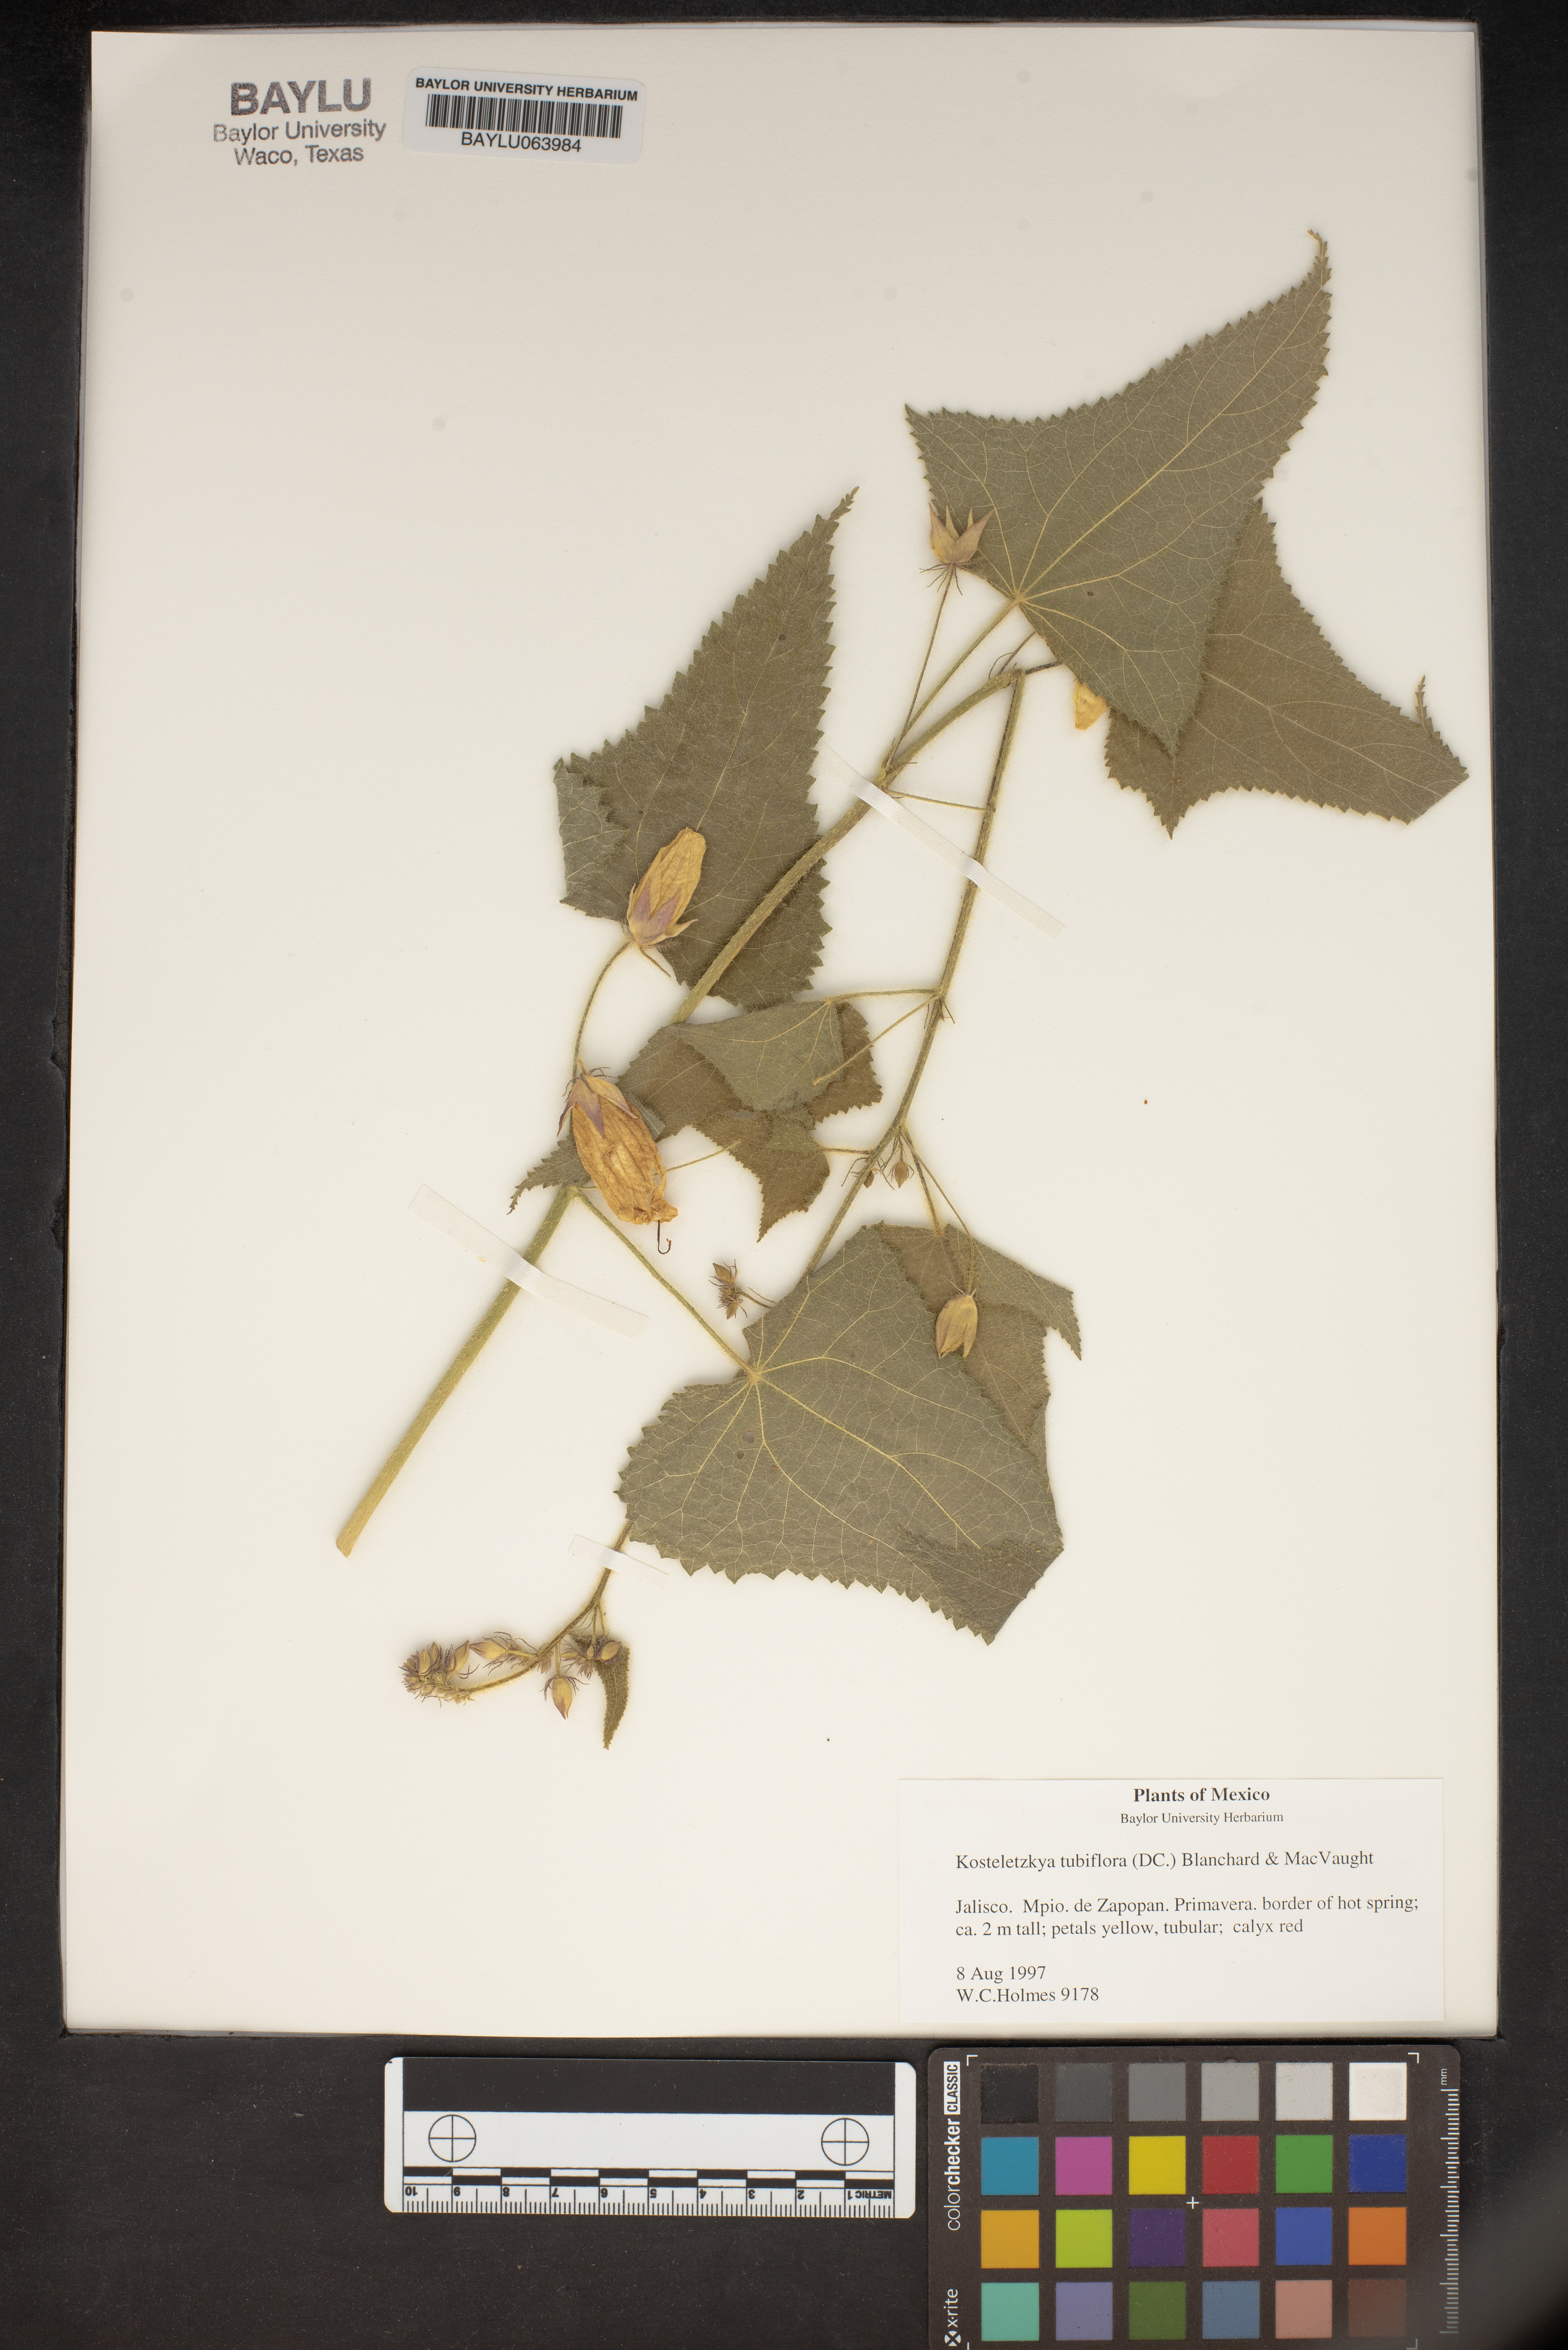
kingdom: Plantae
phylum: Tracheophyta
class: Magnoliopsida
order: Malvales
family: Malvaceae
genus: Kosteletzkya
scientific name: Kosteletzkya tubiflora
